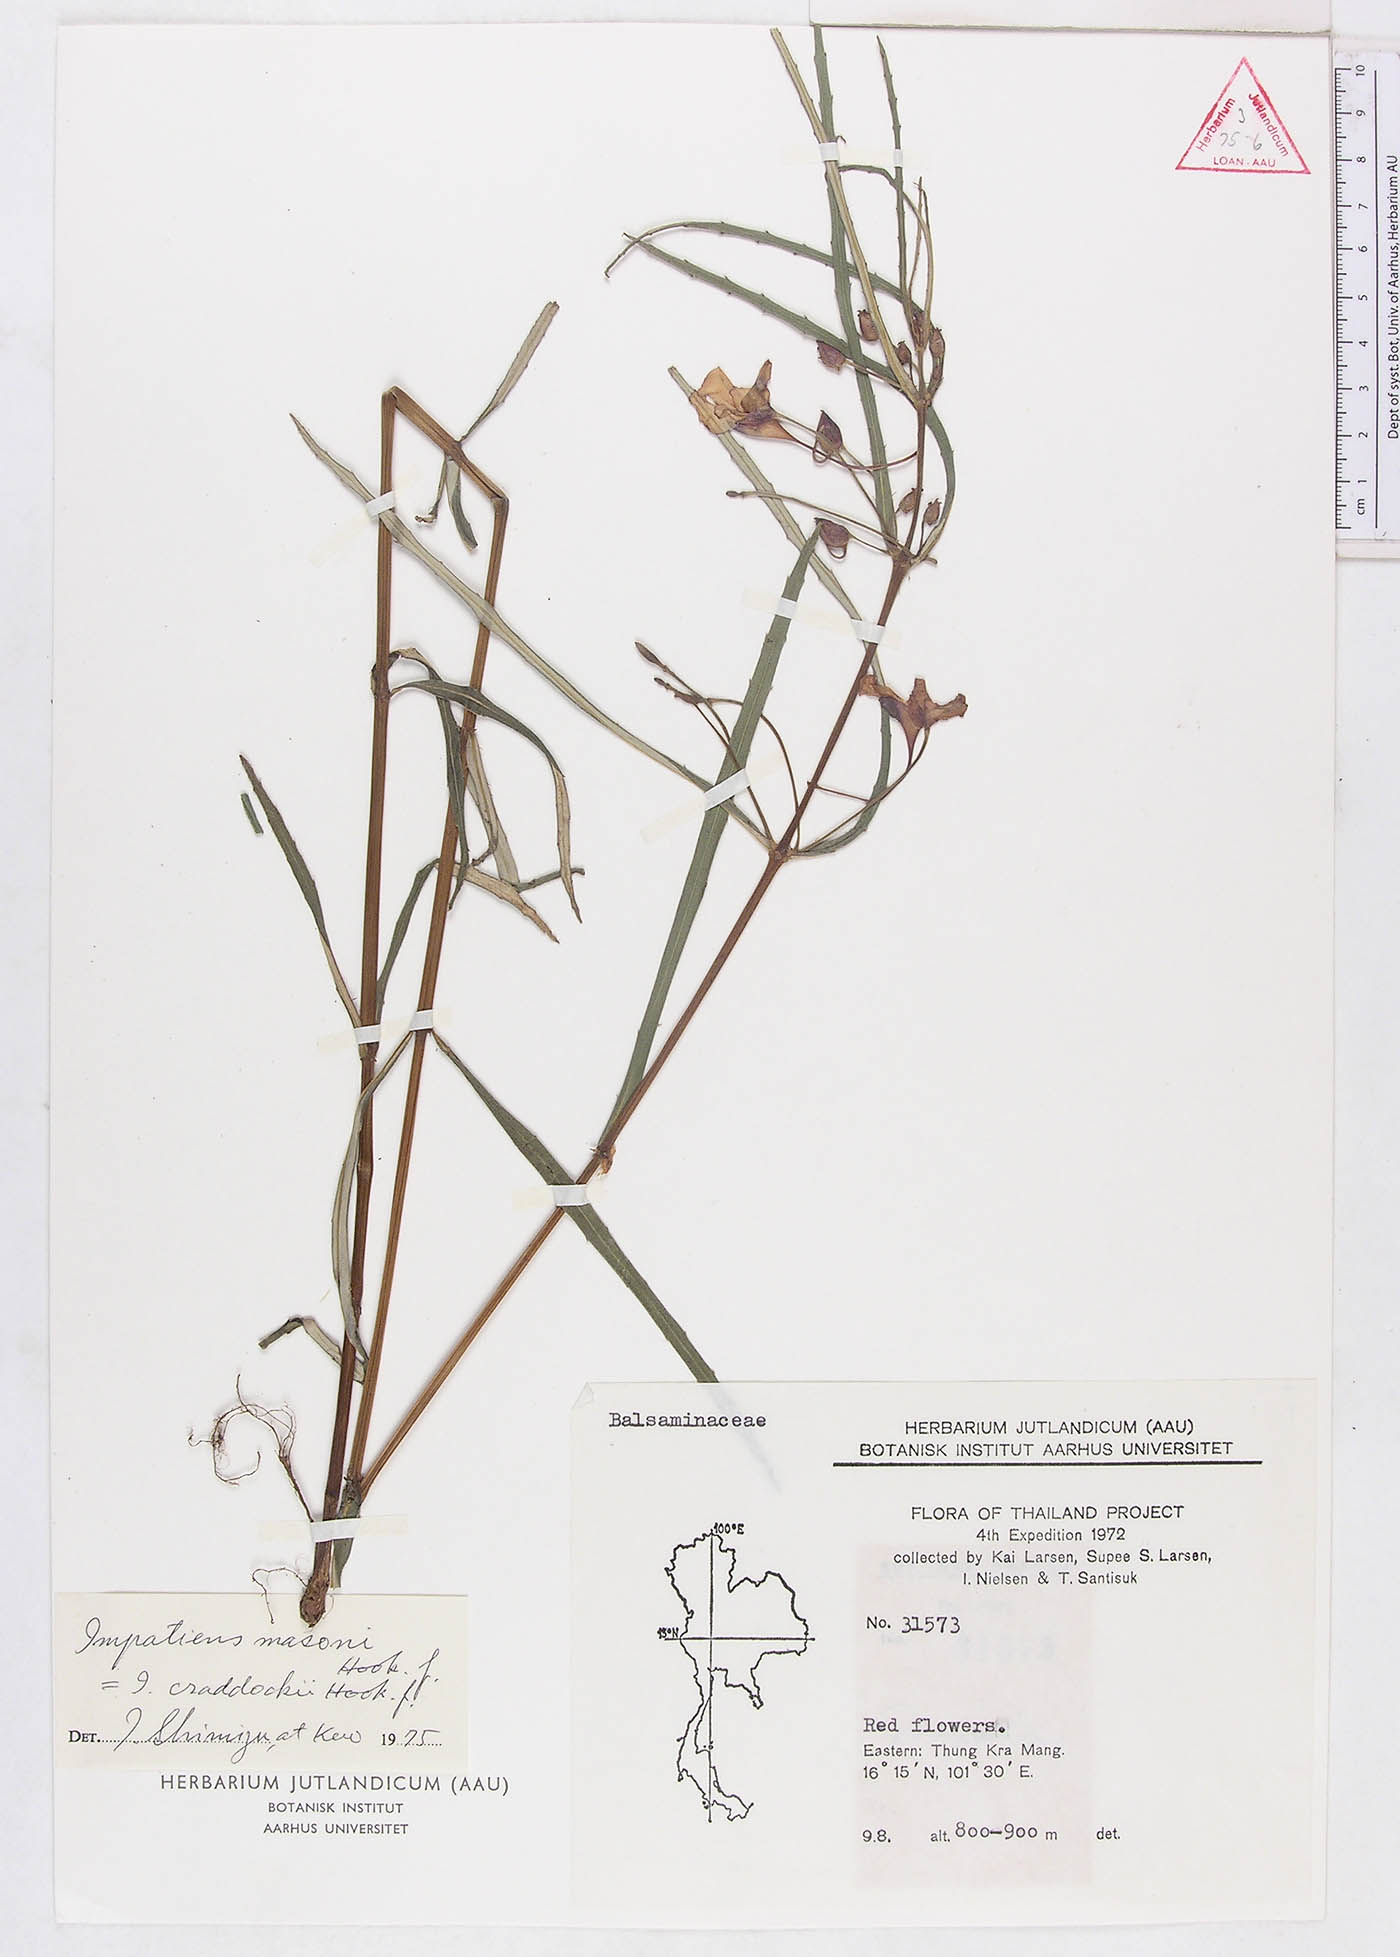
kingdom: Plantae
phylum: Tracheophyta
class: Magnoliopsida
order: Ericales
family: Balsaminaceae
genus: Impatiens
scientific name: Impatiens masonii
